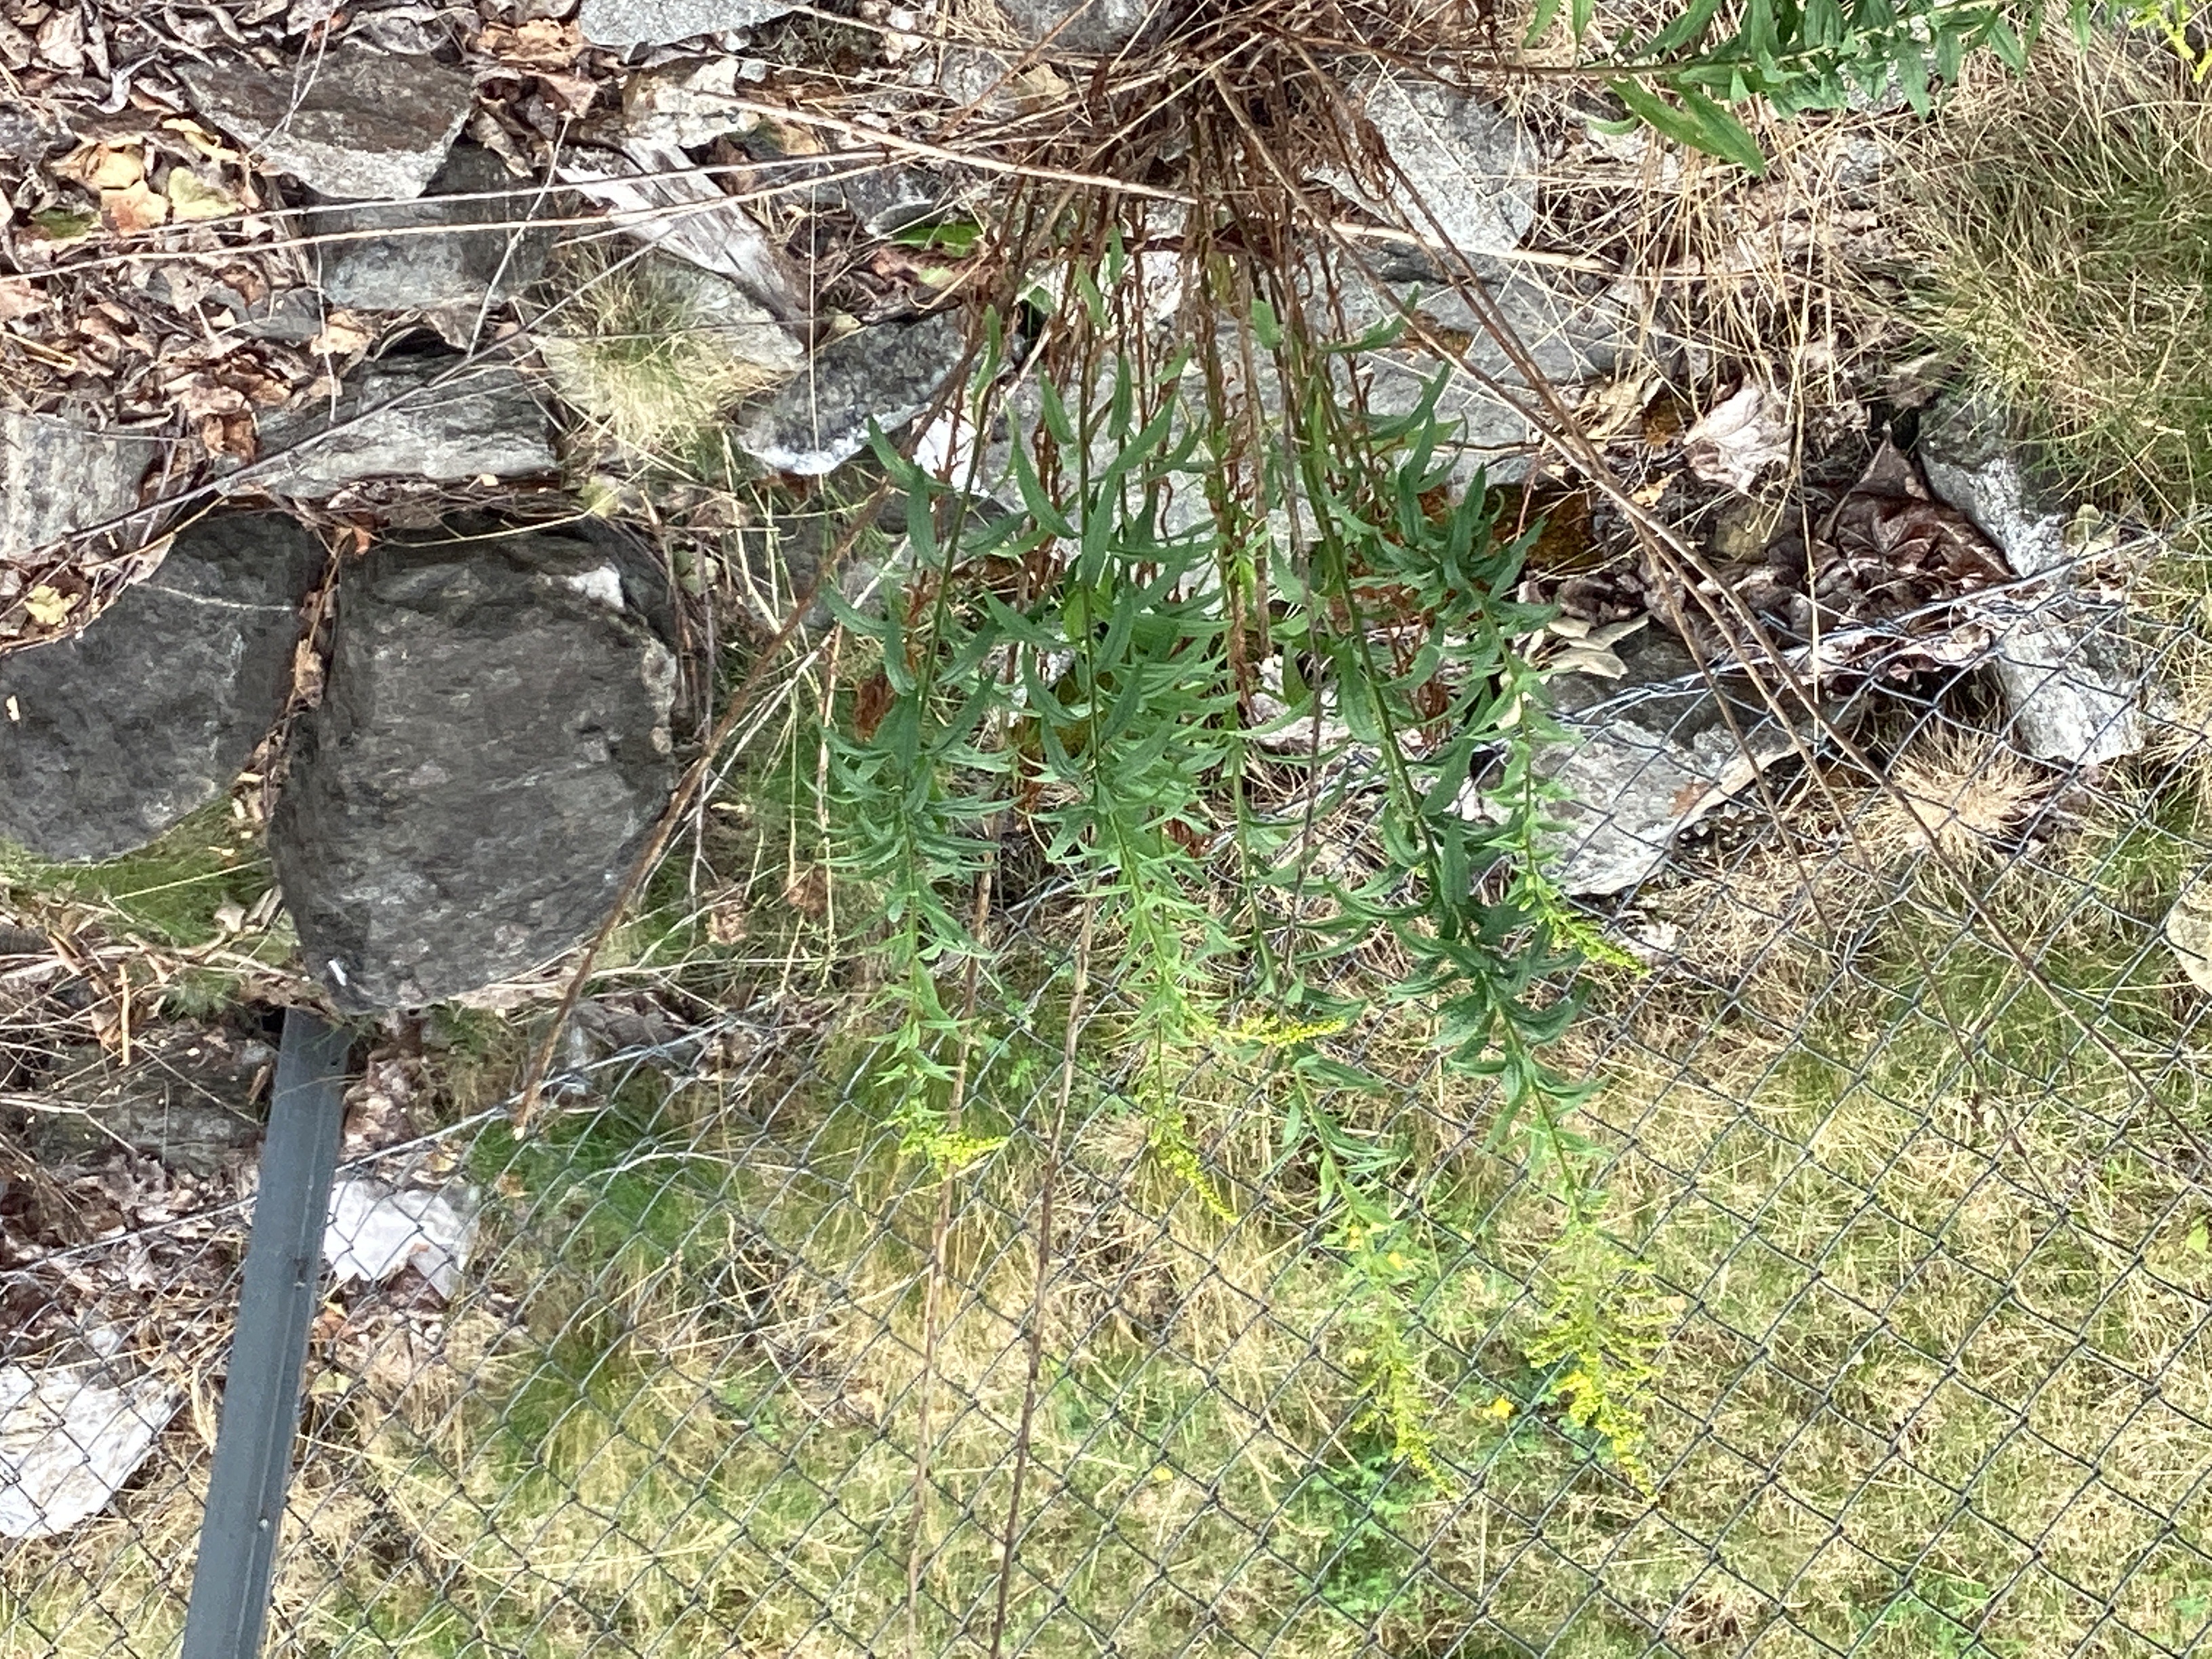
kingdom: Plantae
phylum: Tracheophyta
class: Magnoliopsida
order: Asterales
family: Asteraceae
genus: Solidago
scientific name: Solidago canadensis
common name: kanadagullris
